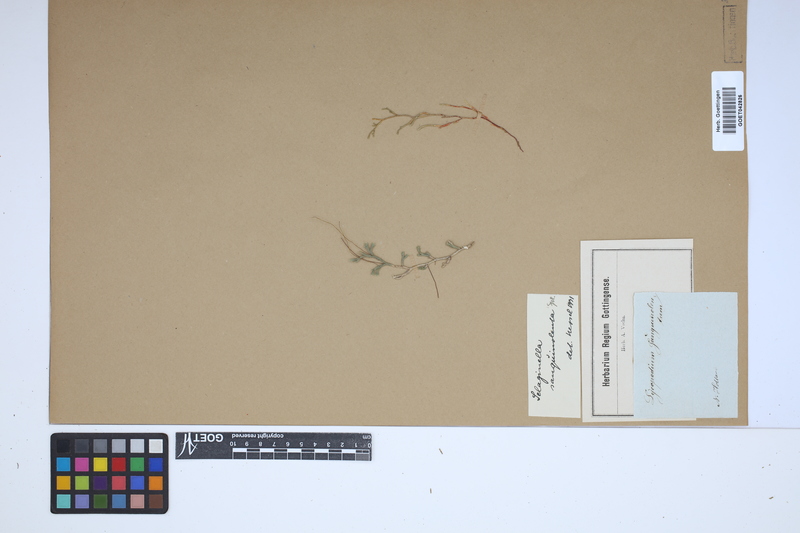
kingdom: Plantae
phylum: Tracheophyta
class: Lycopodiopsida
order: Selaginellales
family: Selaginellaceae
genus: Selaginella
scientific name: Selaginella sanguinolenta
